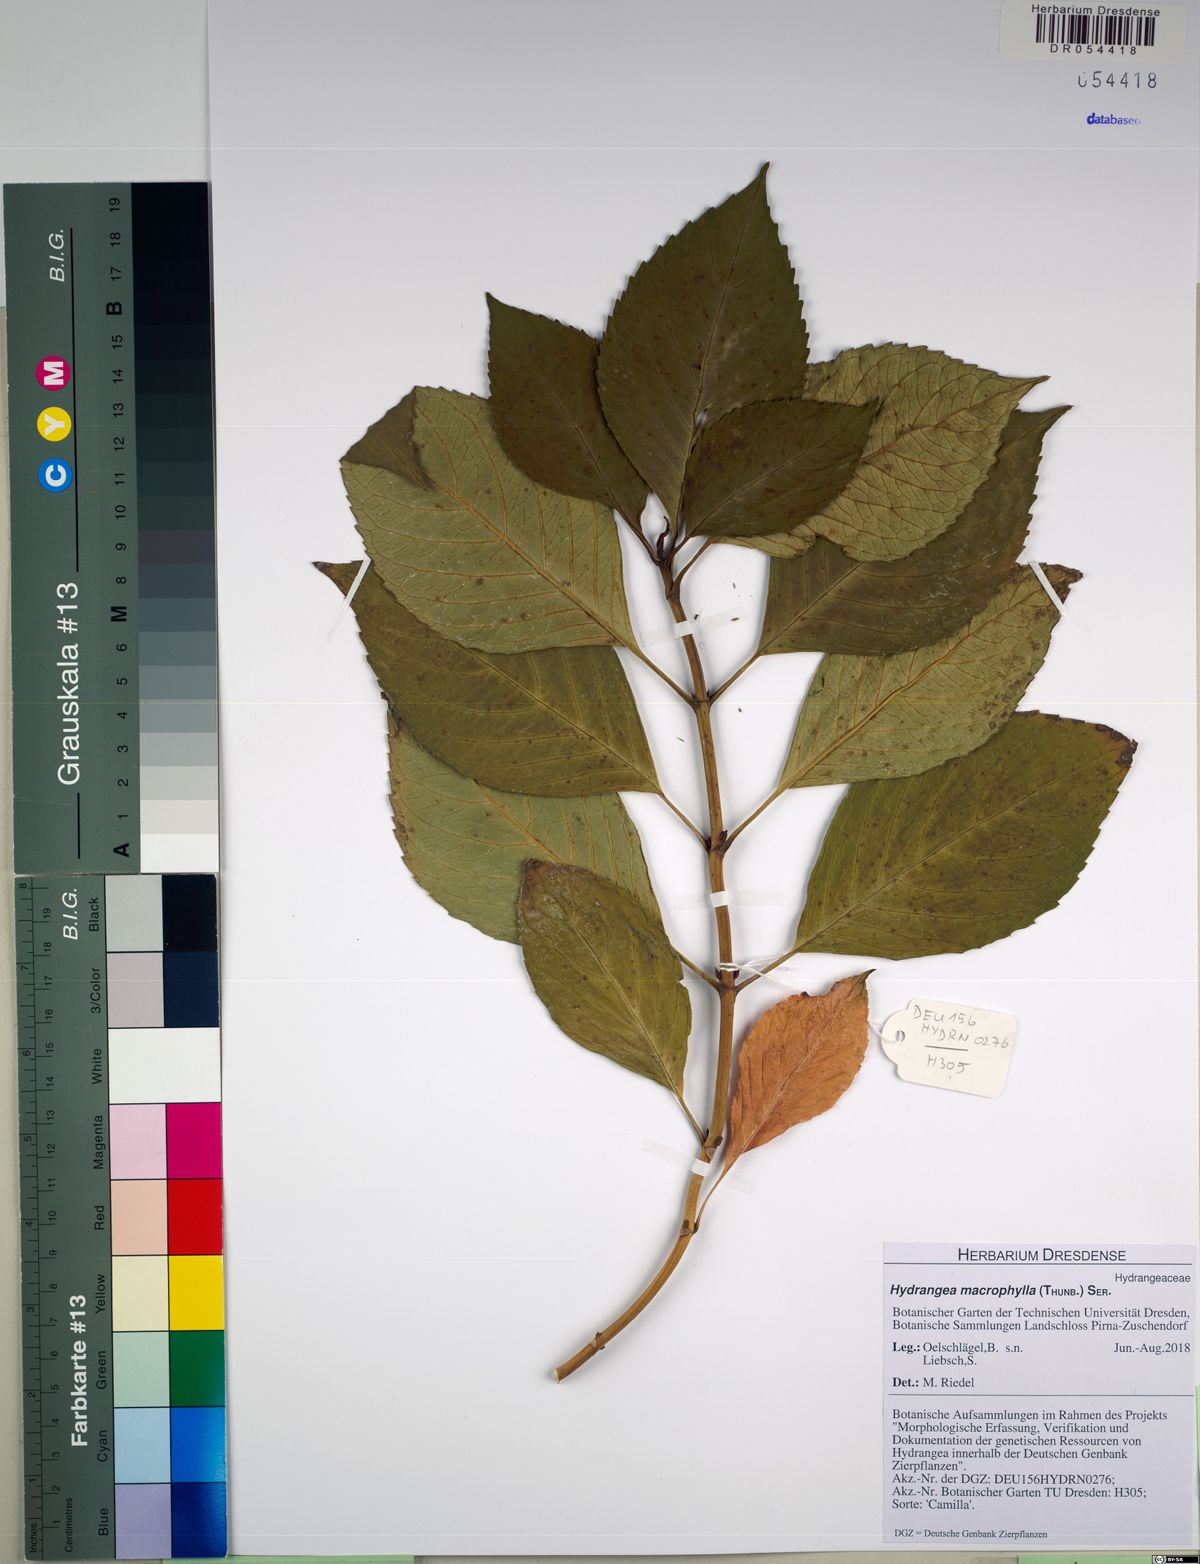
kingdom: Plantae
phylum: Tracheophyta
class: Magnoliopsida
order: Cornales
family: Hydrangeaceae
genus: Hydrangea
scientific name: Hydrangea macrophylla
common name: Hydrangea
